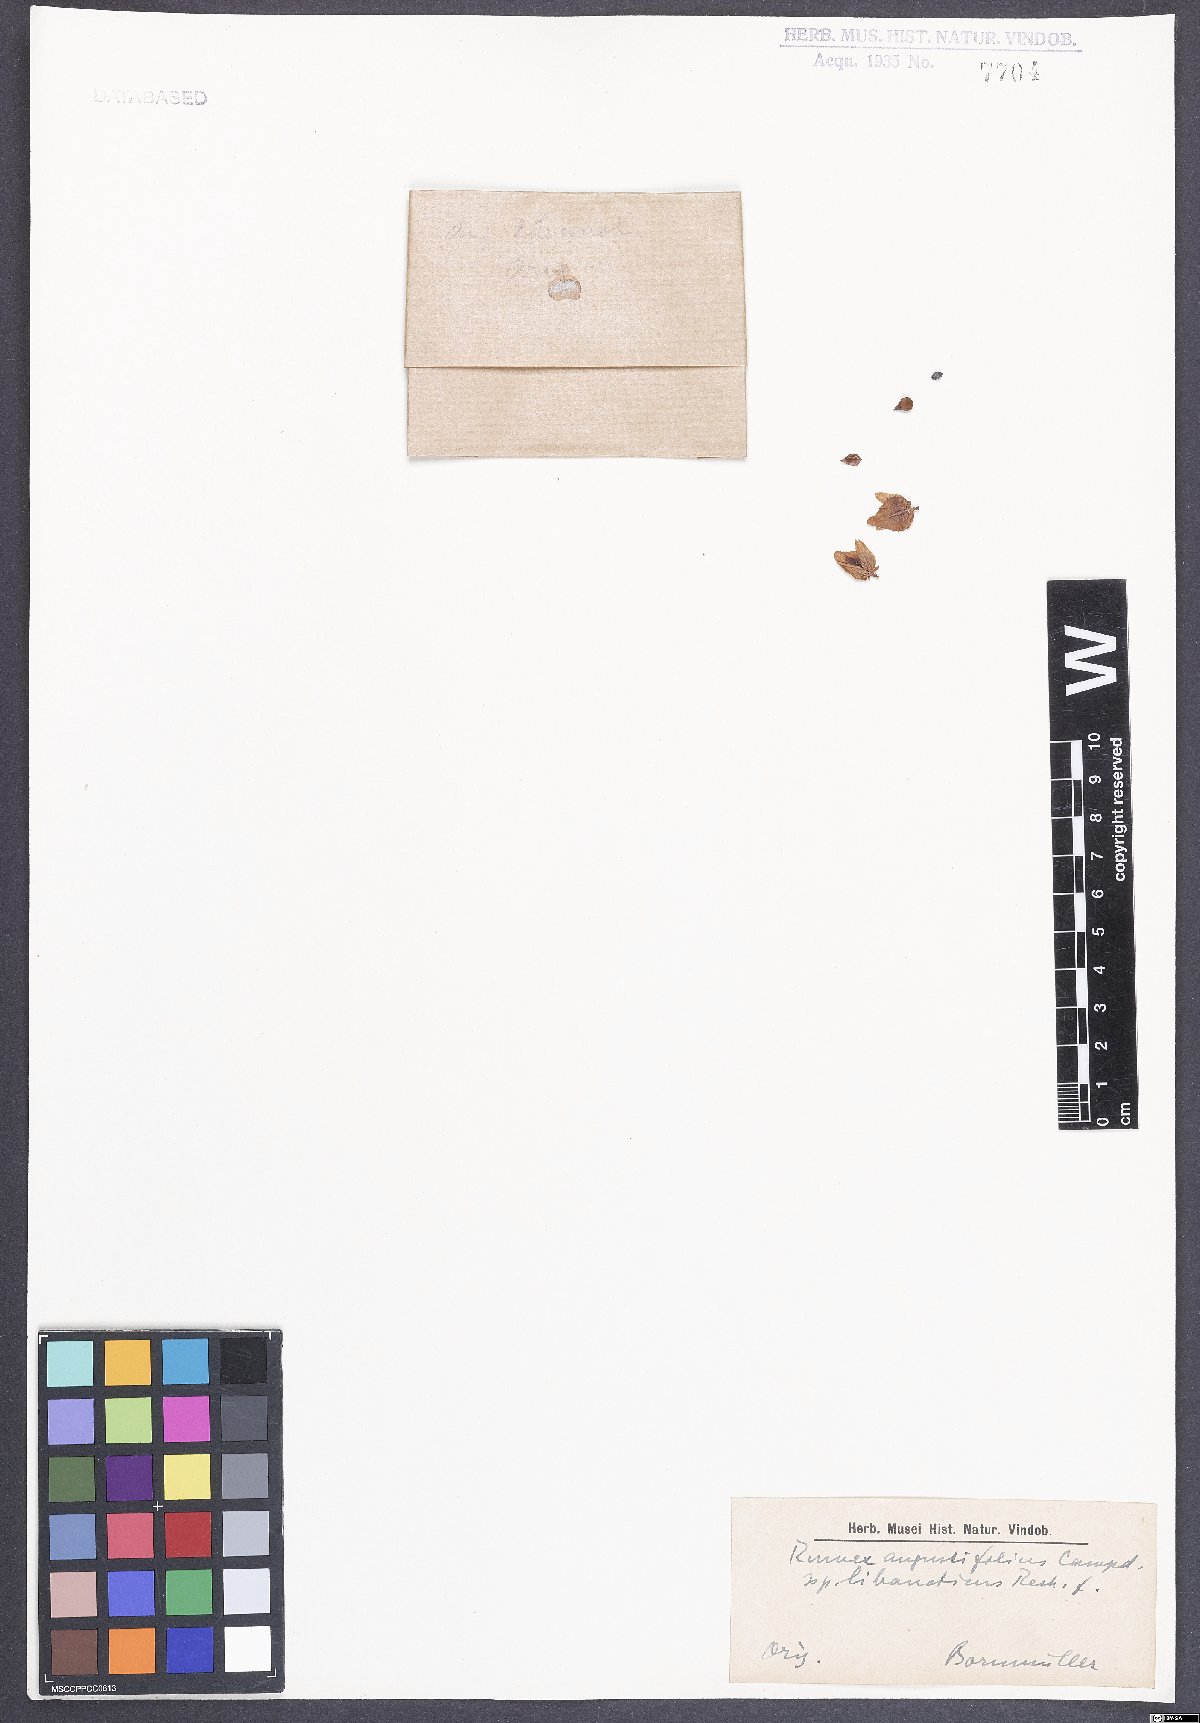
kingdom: Plantae
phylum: Tracheophyta
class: Magnoliopsida
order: Caryophyllales
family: Polygonaceae
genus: Rumex
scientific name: Rumex angustifolius
